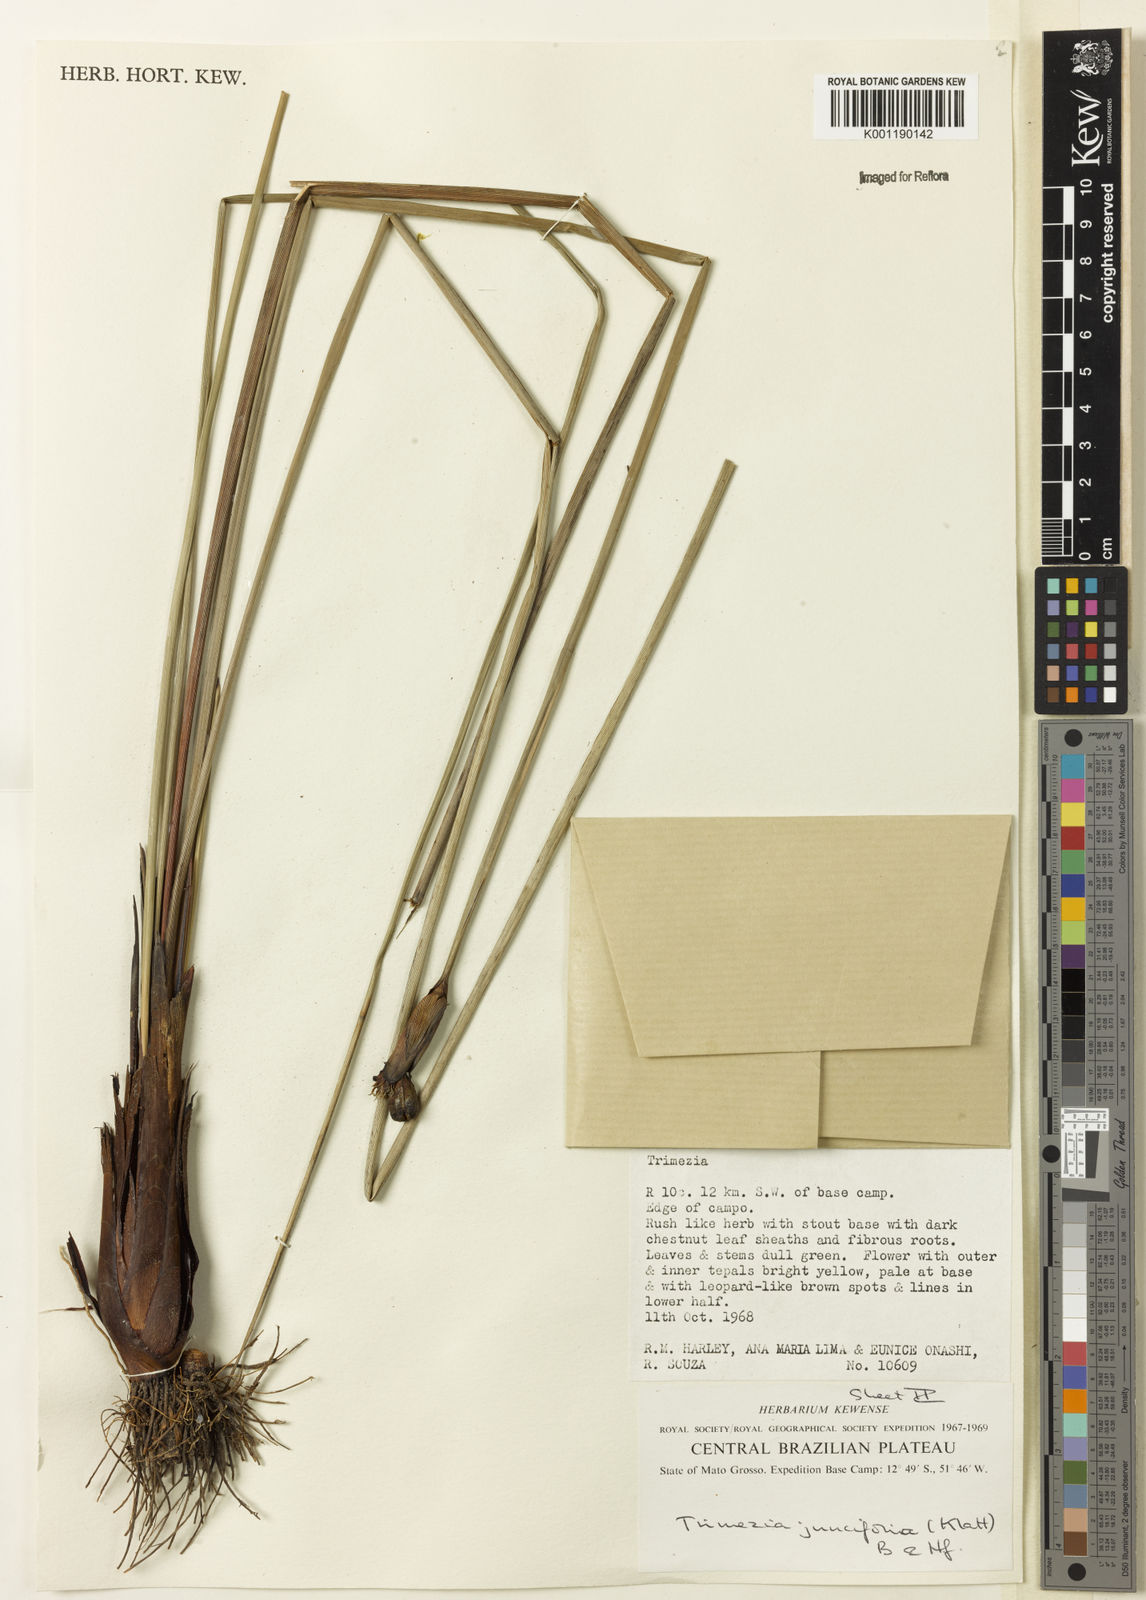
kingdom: Plantae
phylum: Tracheophyta
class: Liliopsida
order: Asparagales
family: Iridaceae
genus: Trimezia
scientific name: Trimezia juncifolia
